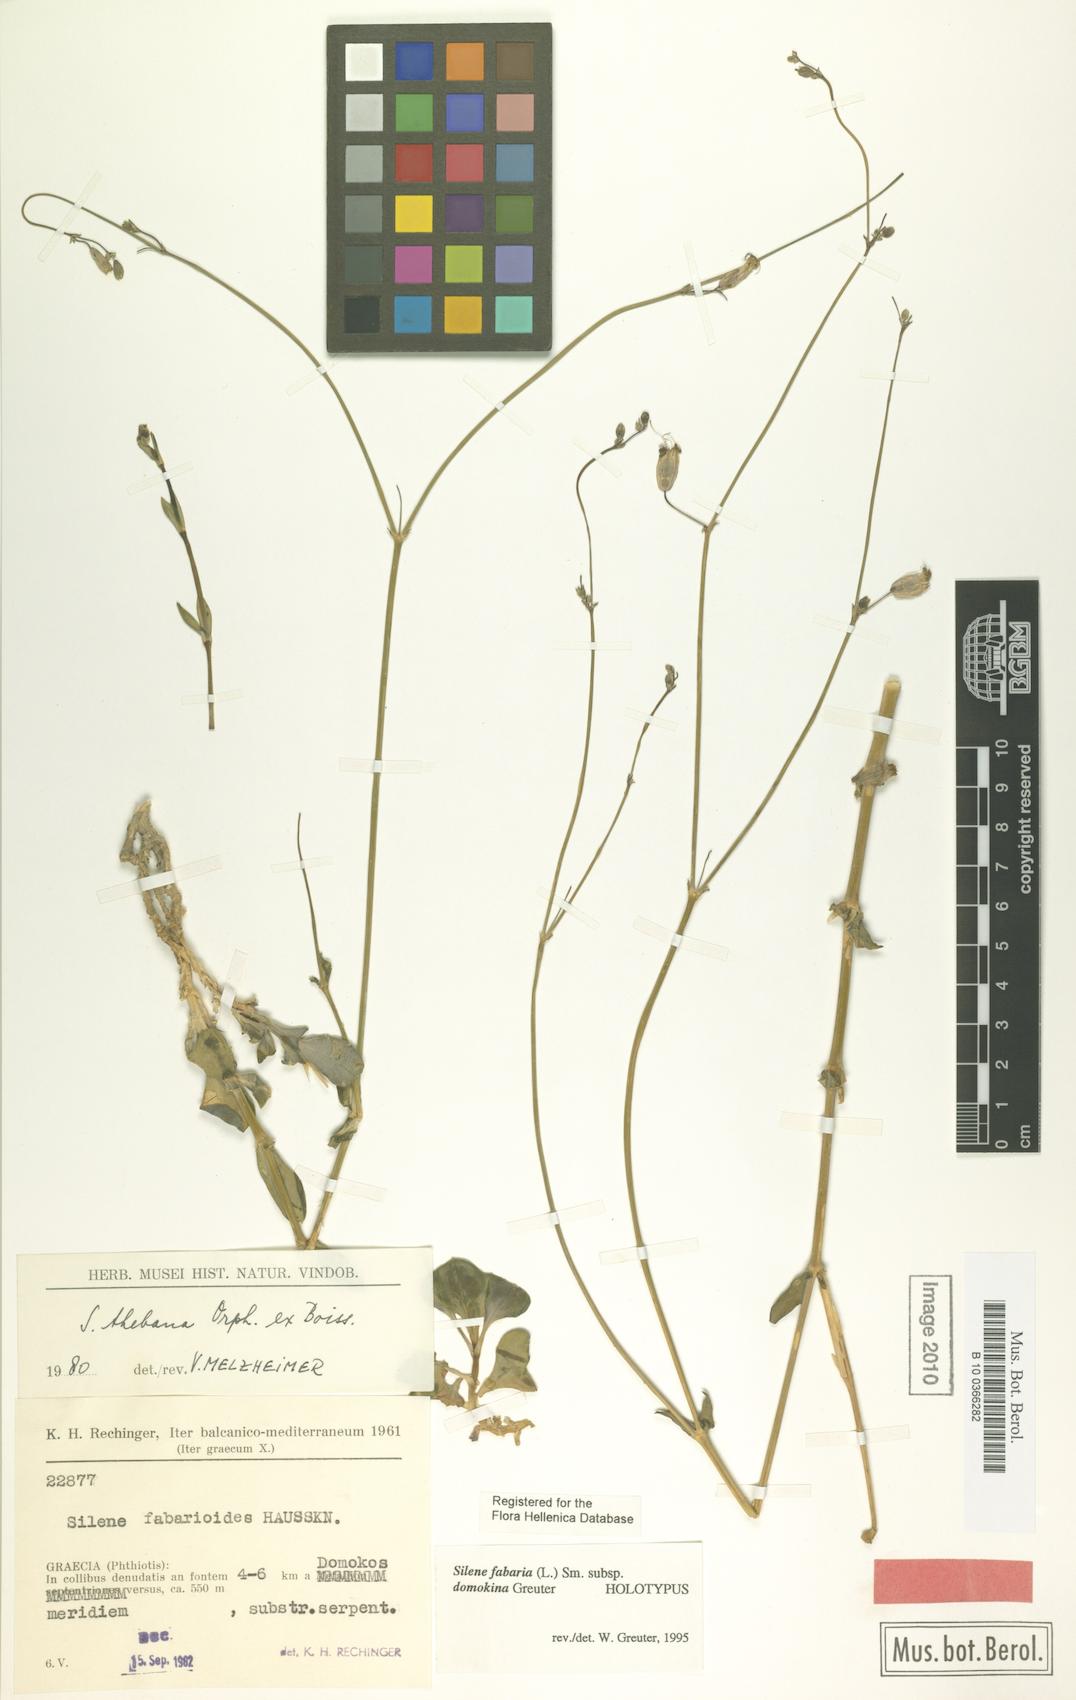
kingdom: Plantae
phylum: Tracheophyta
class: Magnoliopsida
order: Caryophyllales
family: Caryophyllaceae
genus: Silene
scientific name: Silene fabaria
